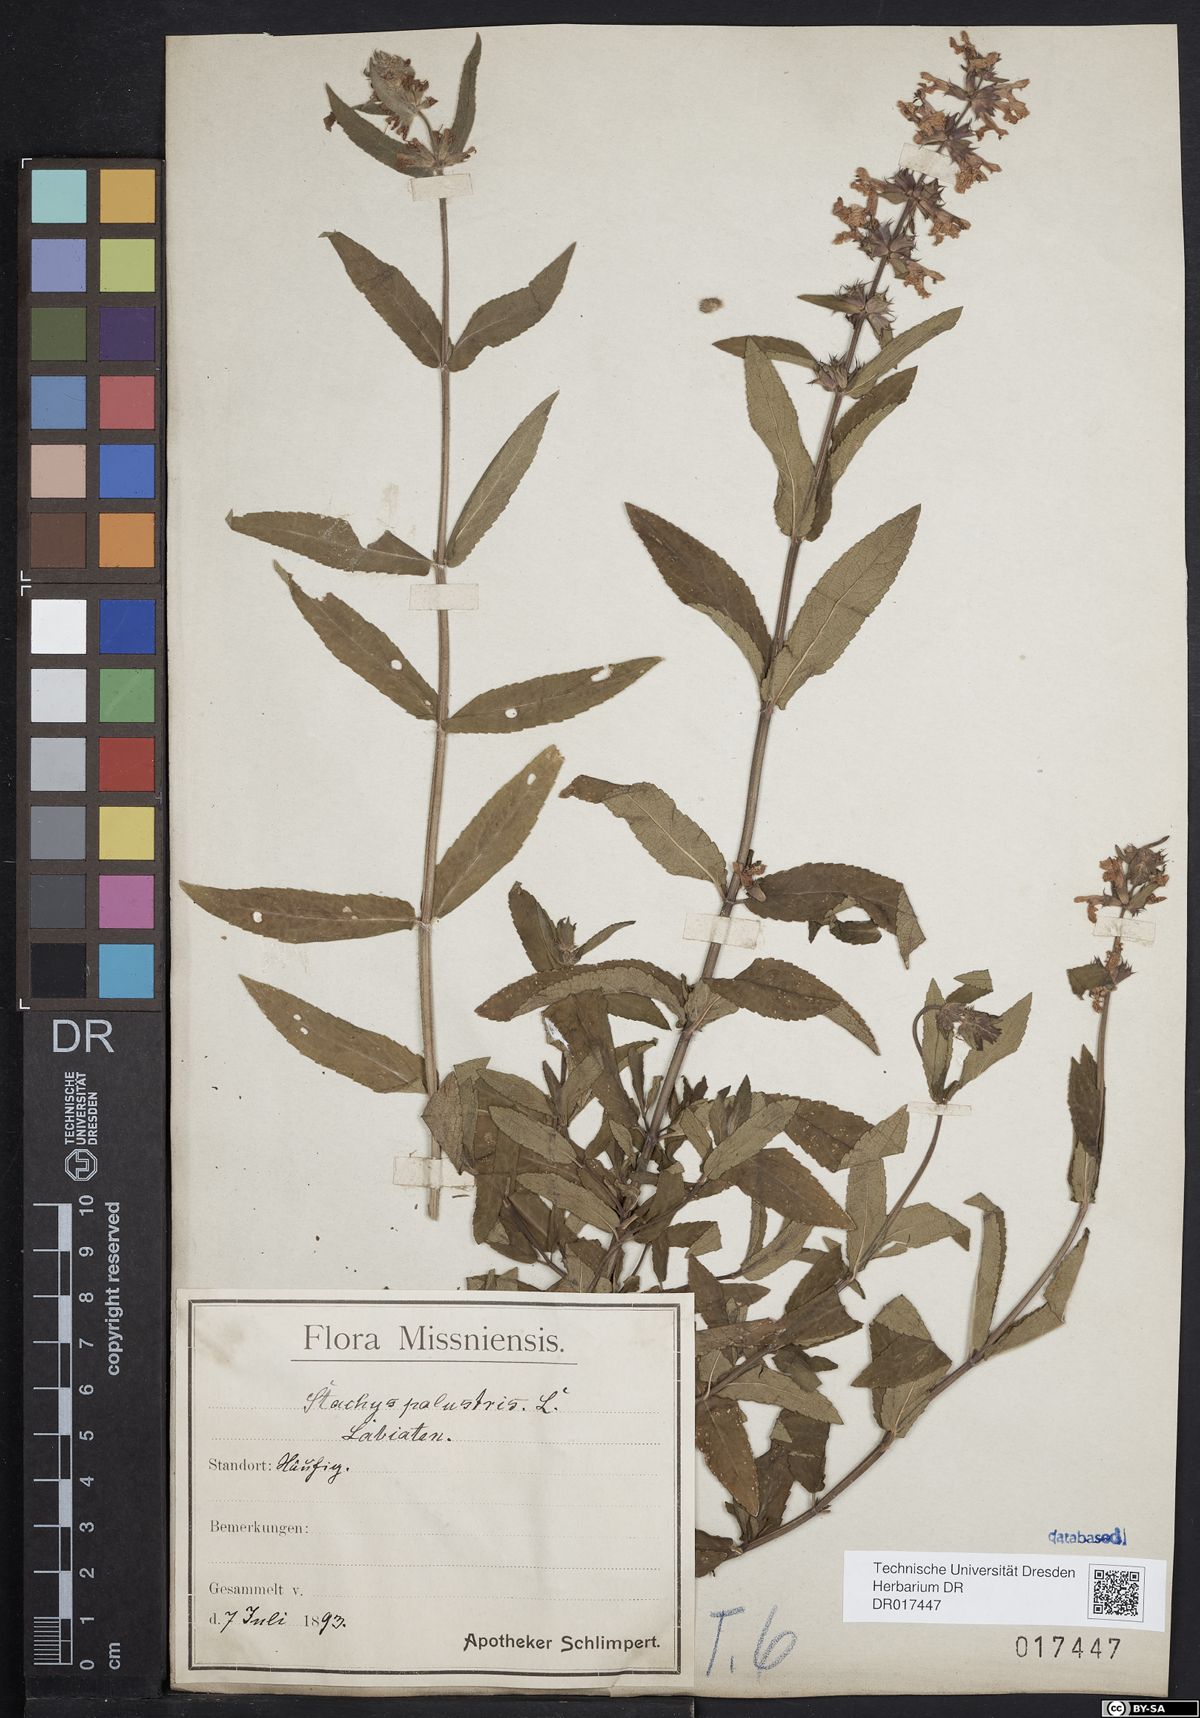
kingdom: Plantae
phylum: Tracheophyta
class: Magnoliopsida
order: Lamiales
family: Lamiaceae
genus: Stachys
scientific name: Stachys palustris
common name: Marsh woundwort
